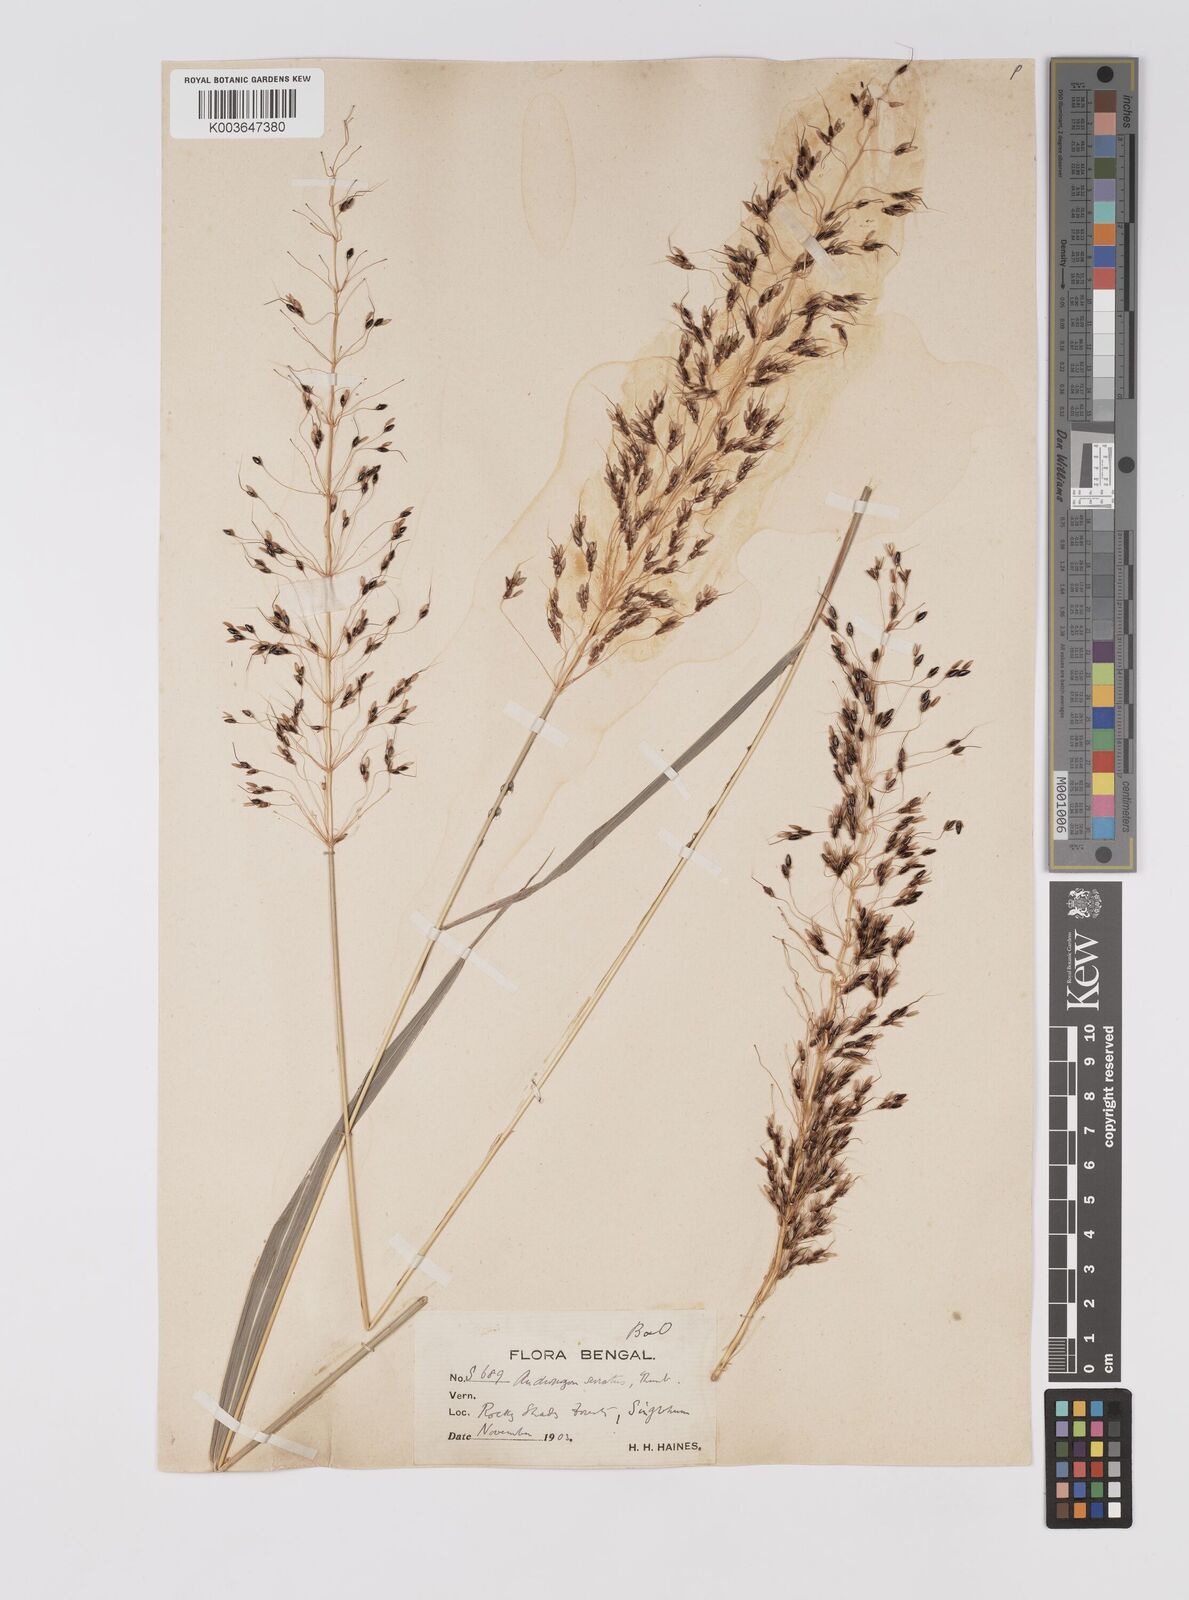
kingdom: Plantae
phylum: Tracheophyta
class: Liliopsida
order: Poales
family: Poaceae
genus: Sorghum
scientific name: Sorghum nitidum
